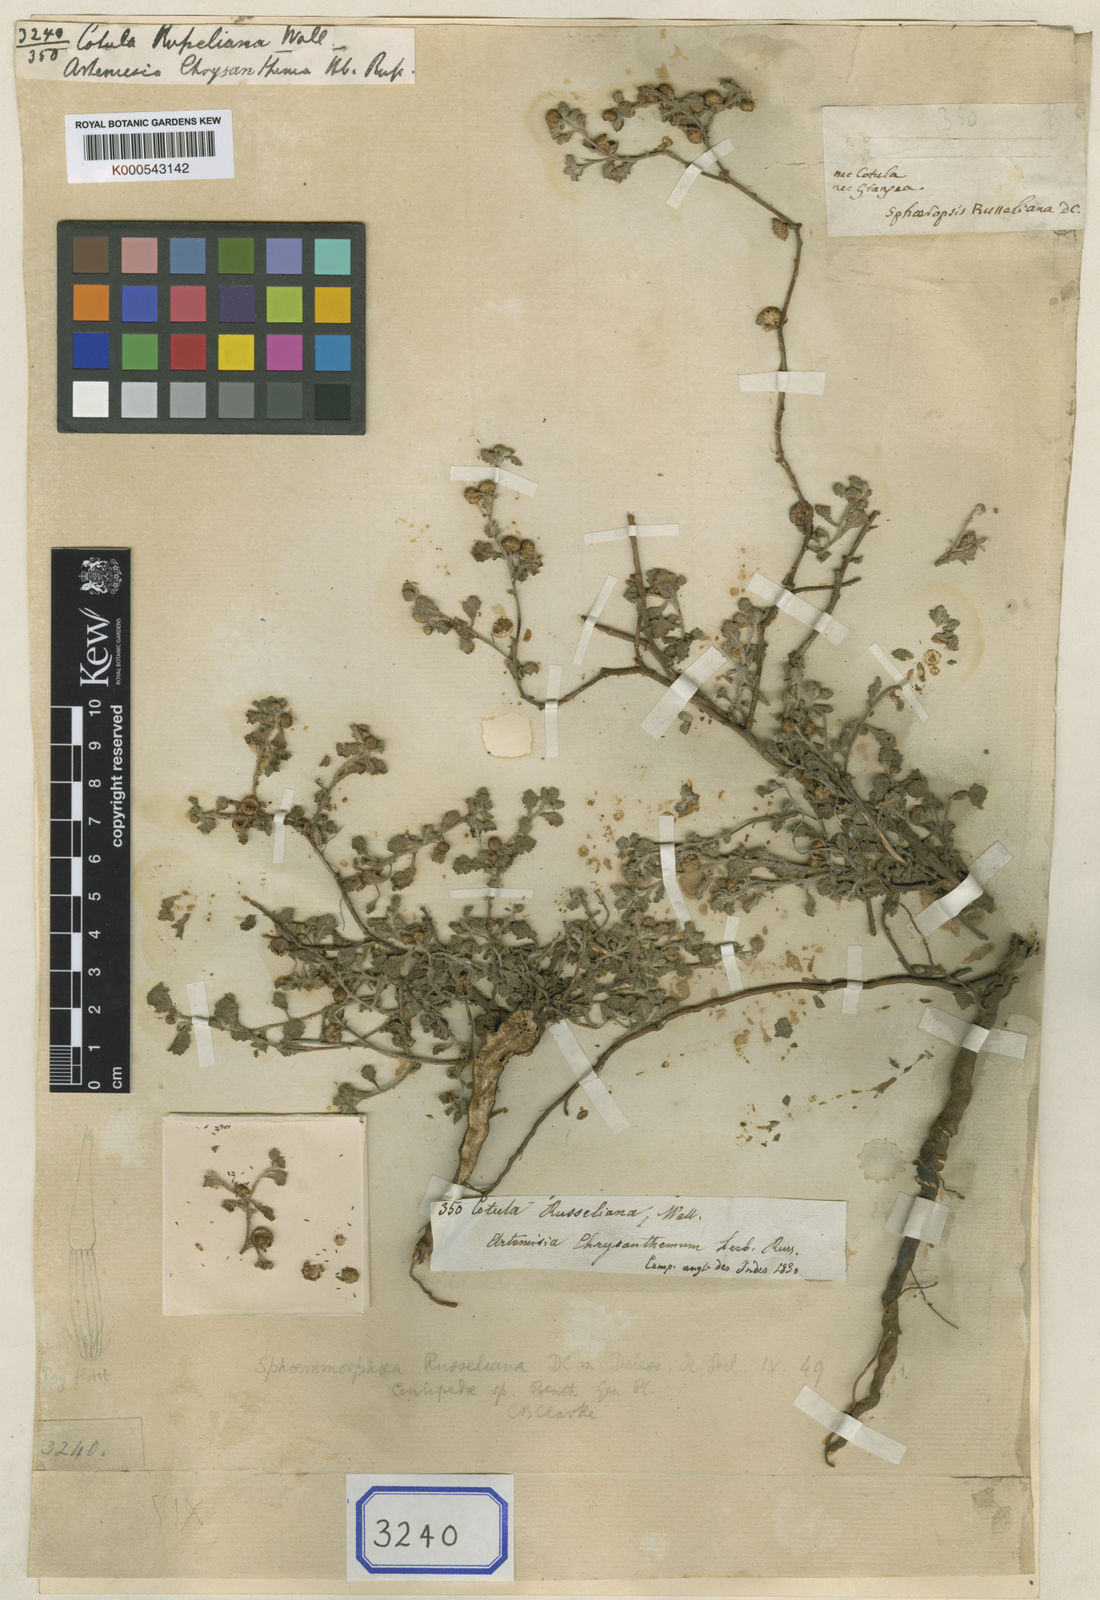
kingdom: Plantae
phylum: Tracheophyta
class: Magnoliopsida
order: Asterales
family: Asteraceae
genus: Epaltes
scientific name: Epaltes
